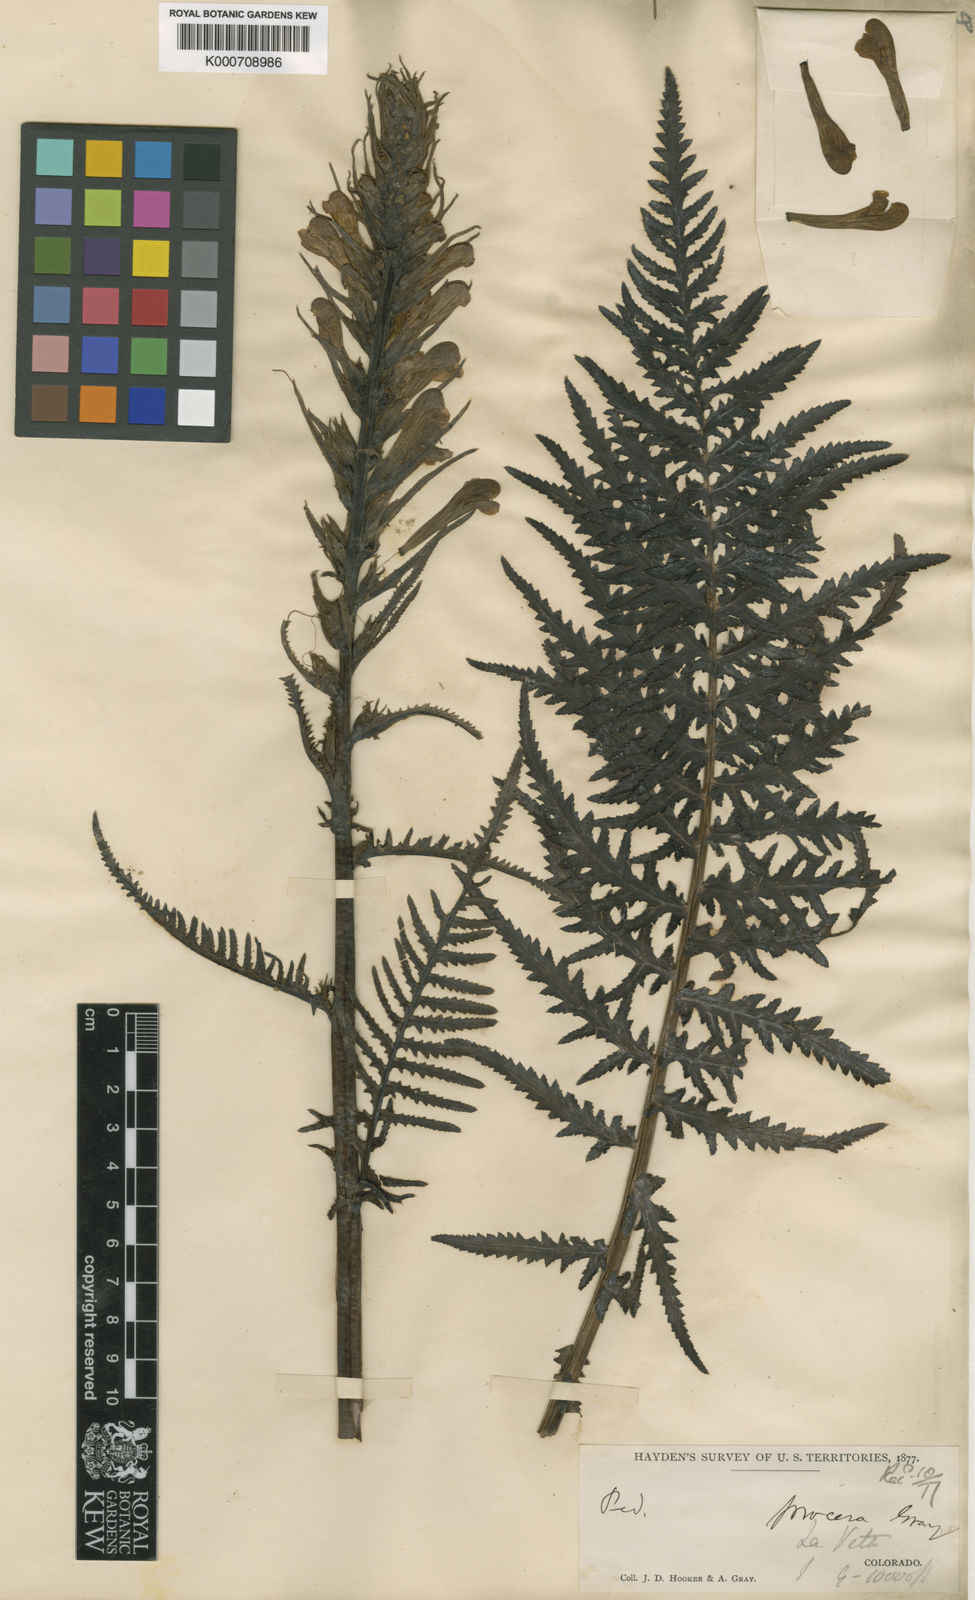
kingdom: Plantae
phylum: Tracheophyta
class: Magnoliopsida
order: Lamiales
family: Orobanchaceae
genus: Pedicularis
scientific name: Pedicularis procera
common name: Gray's lousewort
